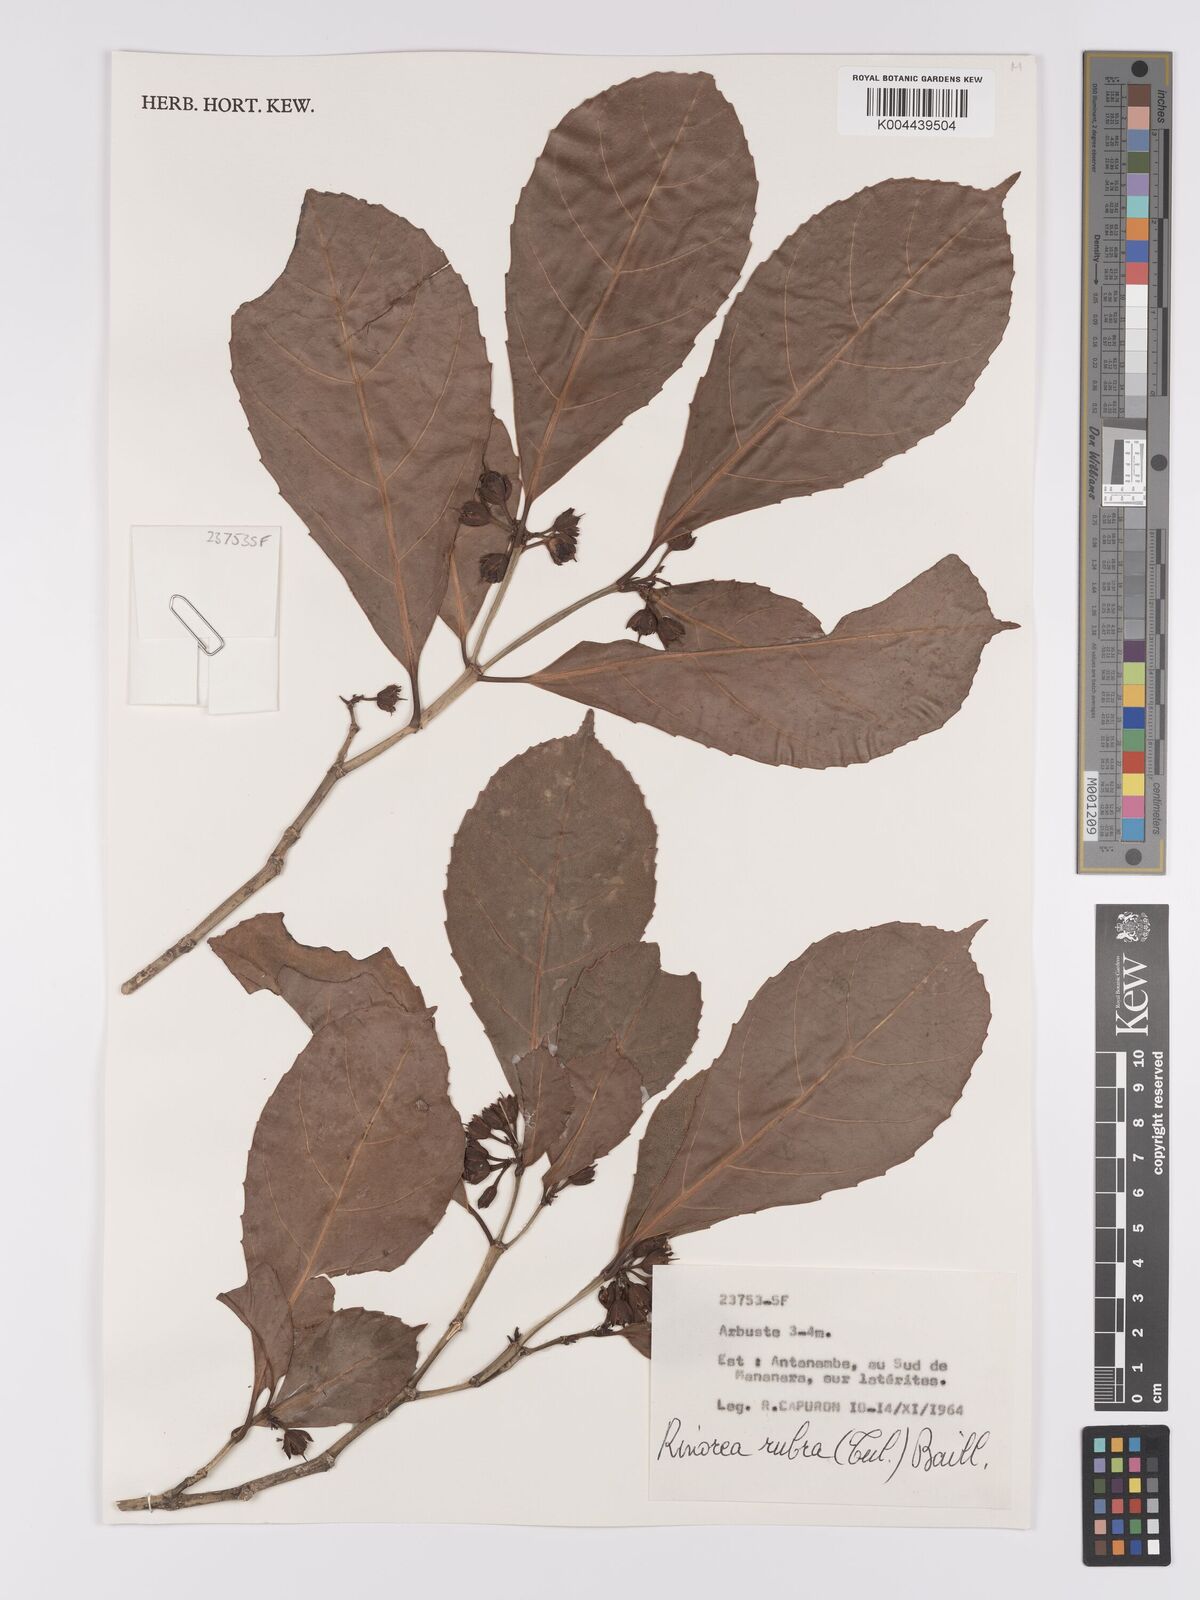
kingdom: Plantae
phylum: Tracheophyta
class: Magnoliopsida
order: Malpighiales
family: Violaceae
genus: Rinorea
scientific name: Rinorea rubra
